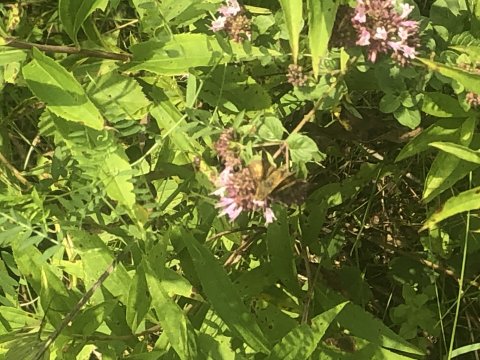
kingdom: Animalia
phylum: Arthropoda
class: Insecta
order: Lepidoptera
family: Hesperiidae
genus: Polites
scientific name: Polites themistocles
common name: Tawny-edged Skipper
